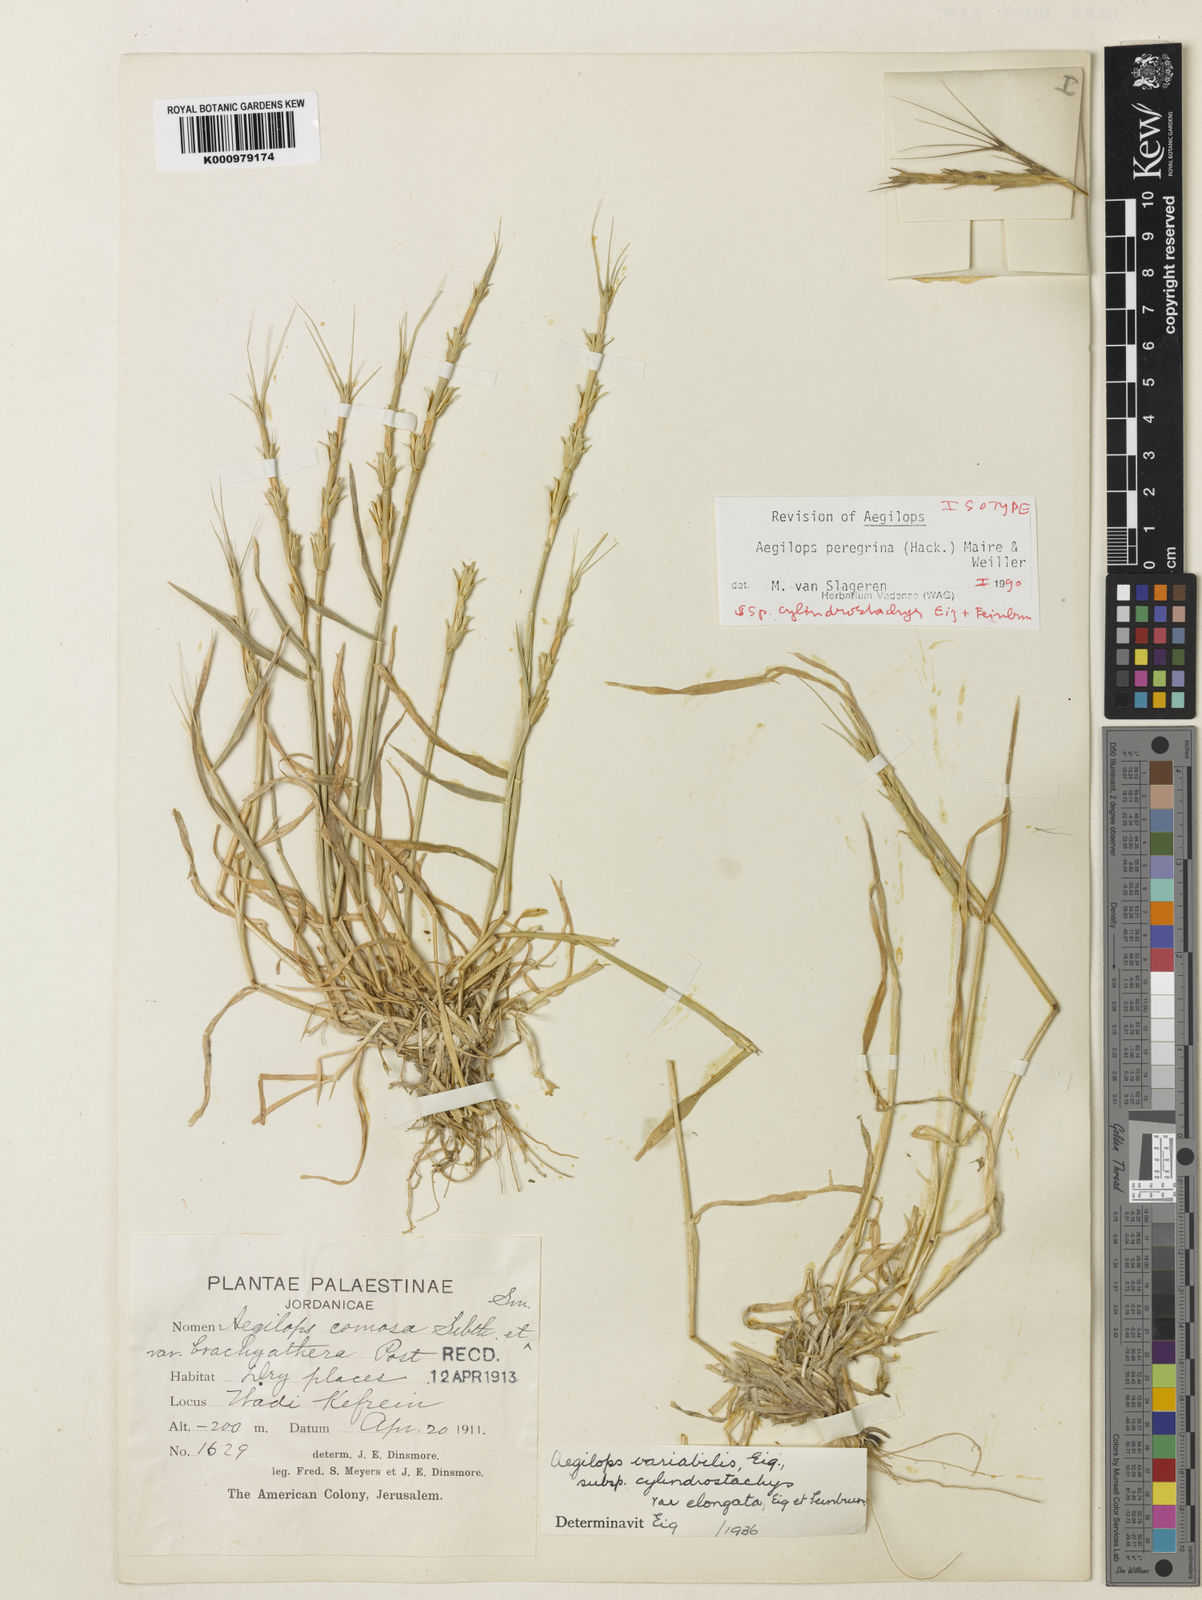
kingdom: Plantae
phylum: Tracheophyta
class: Liliopsida
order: Poales
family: Poaceae
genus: Aegilops
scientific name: Aegilops peregrina
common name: Goatgrass
